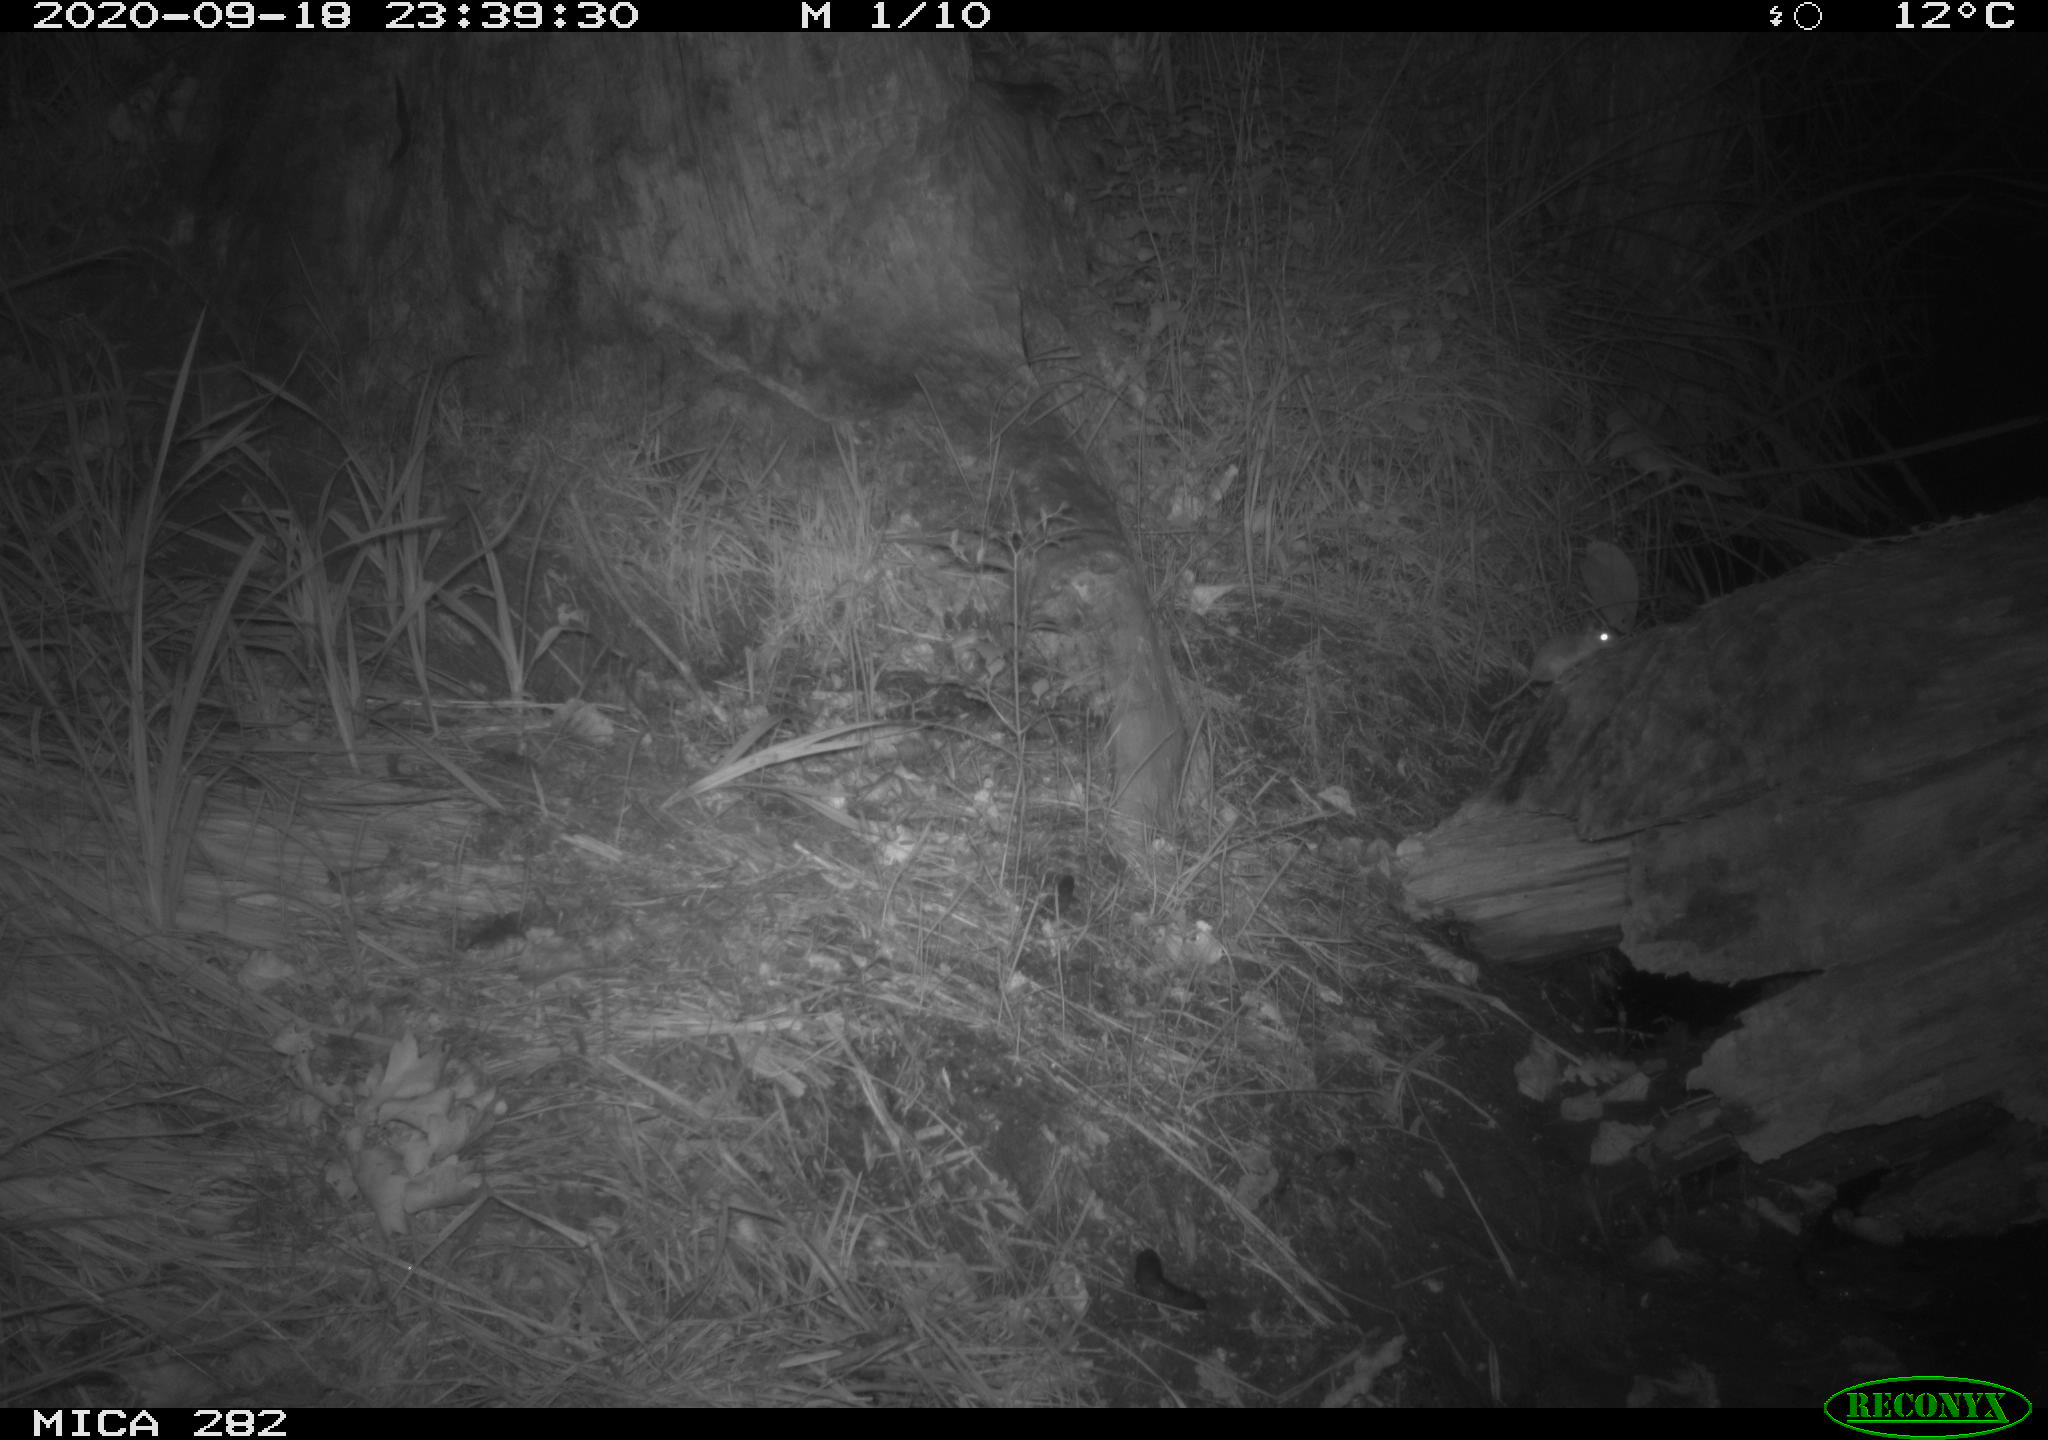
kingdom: Animalia
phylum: Chordata
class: Mammalia
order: Soricomorpha
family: Soricidae
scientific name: Soricidae
